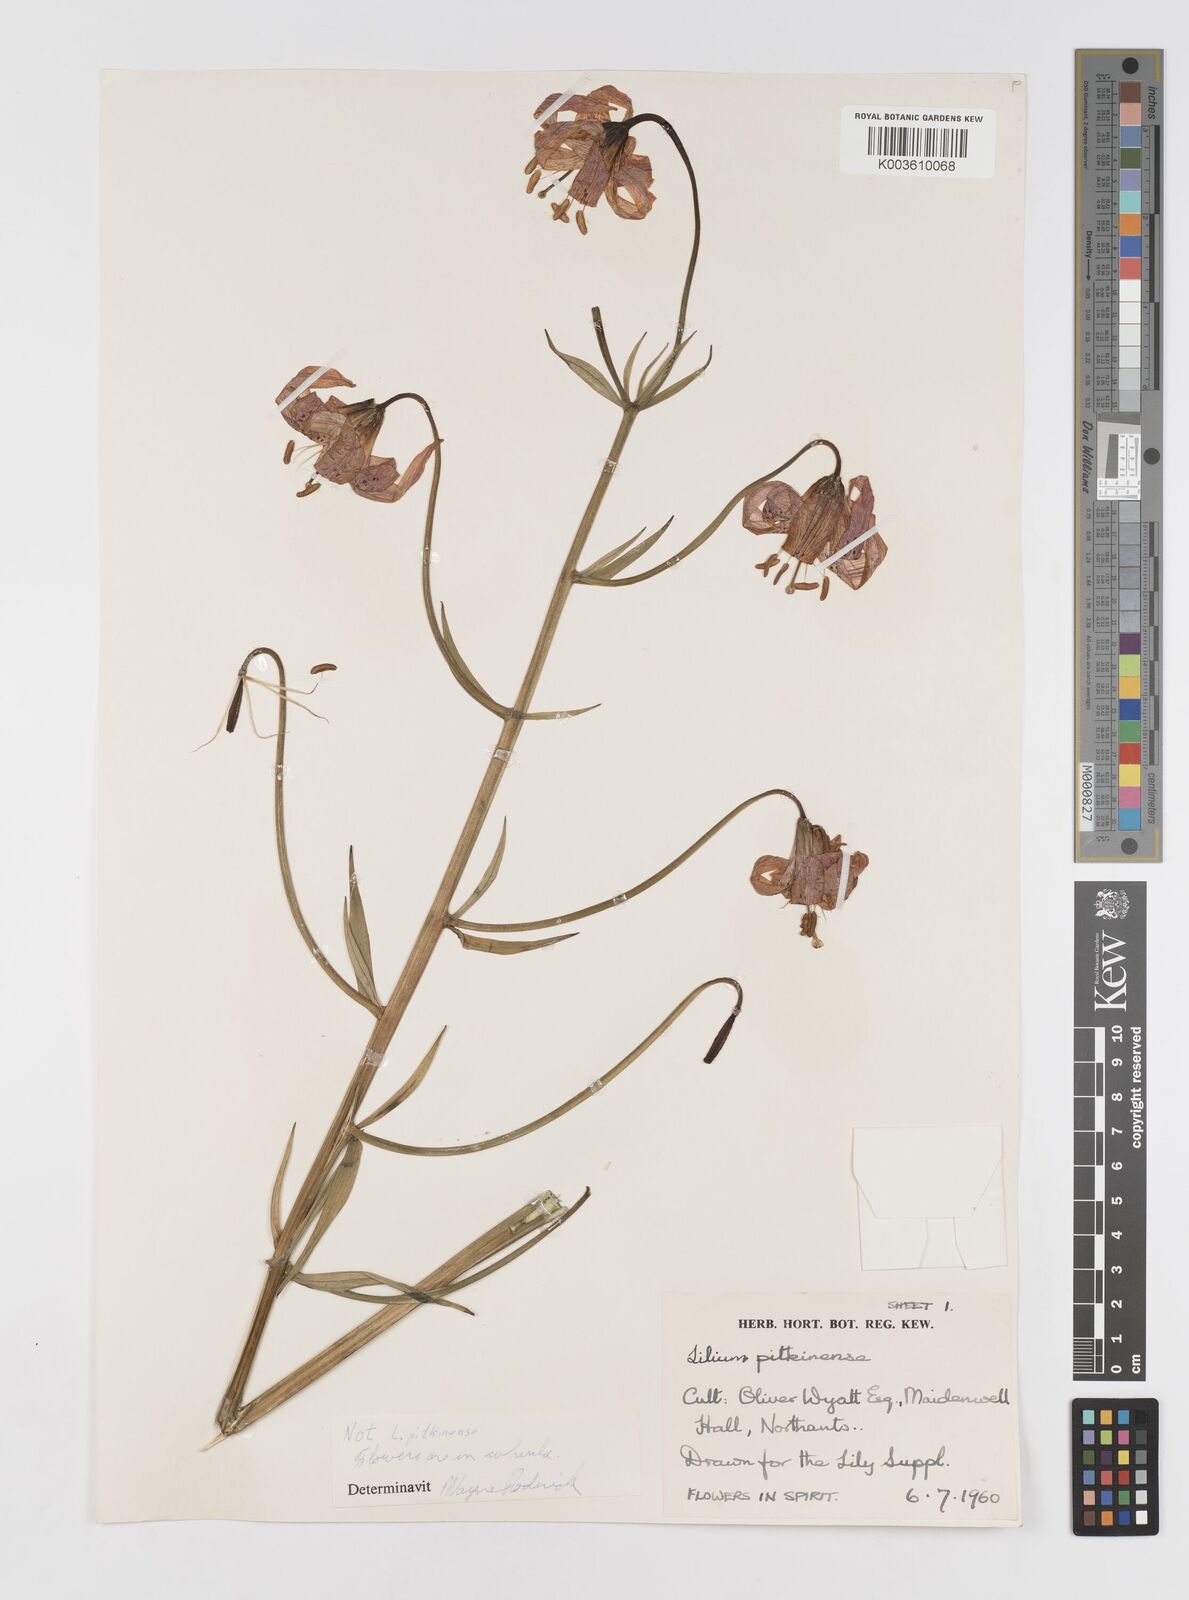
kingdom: Plantae
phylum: Tracheophyta
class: Liliopsida
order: Liliales
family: Liliaceae
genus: Lilium
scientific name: Lilium pardalinum
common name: Panther lily
